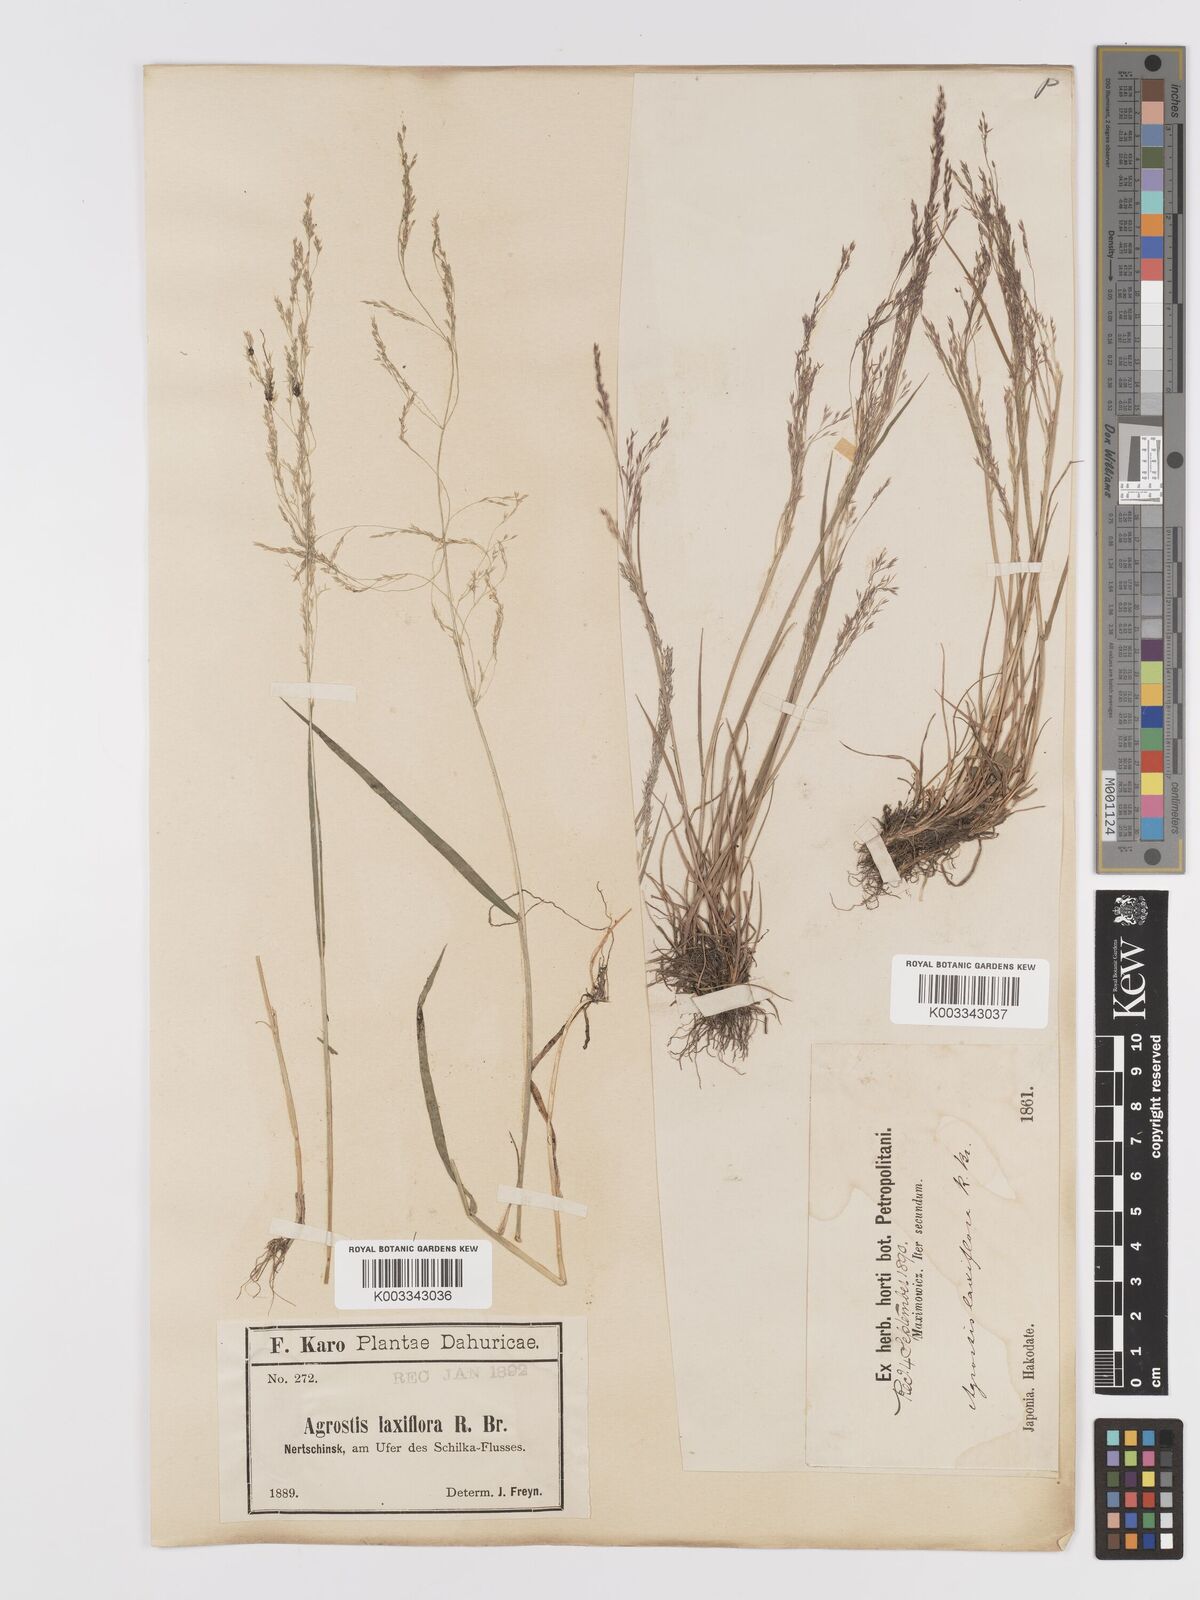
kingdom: Plantae
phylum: Tracheophyta
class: Liliopsida
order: Poales
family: Poaceae
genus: Agrostis
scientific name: Agrostis clavata
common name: Clavate bent
